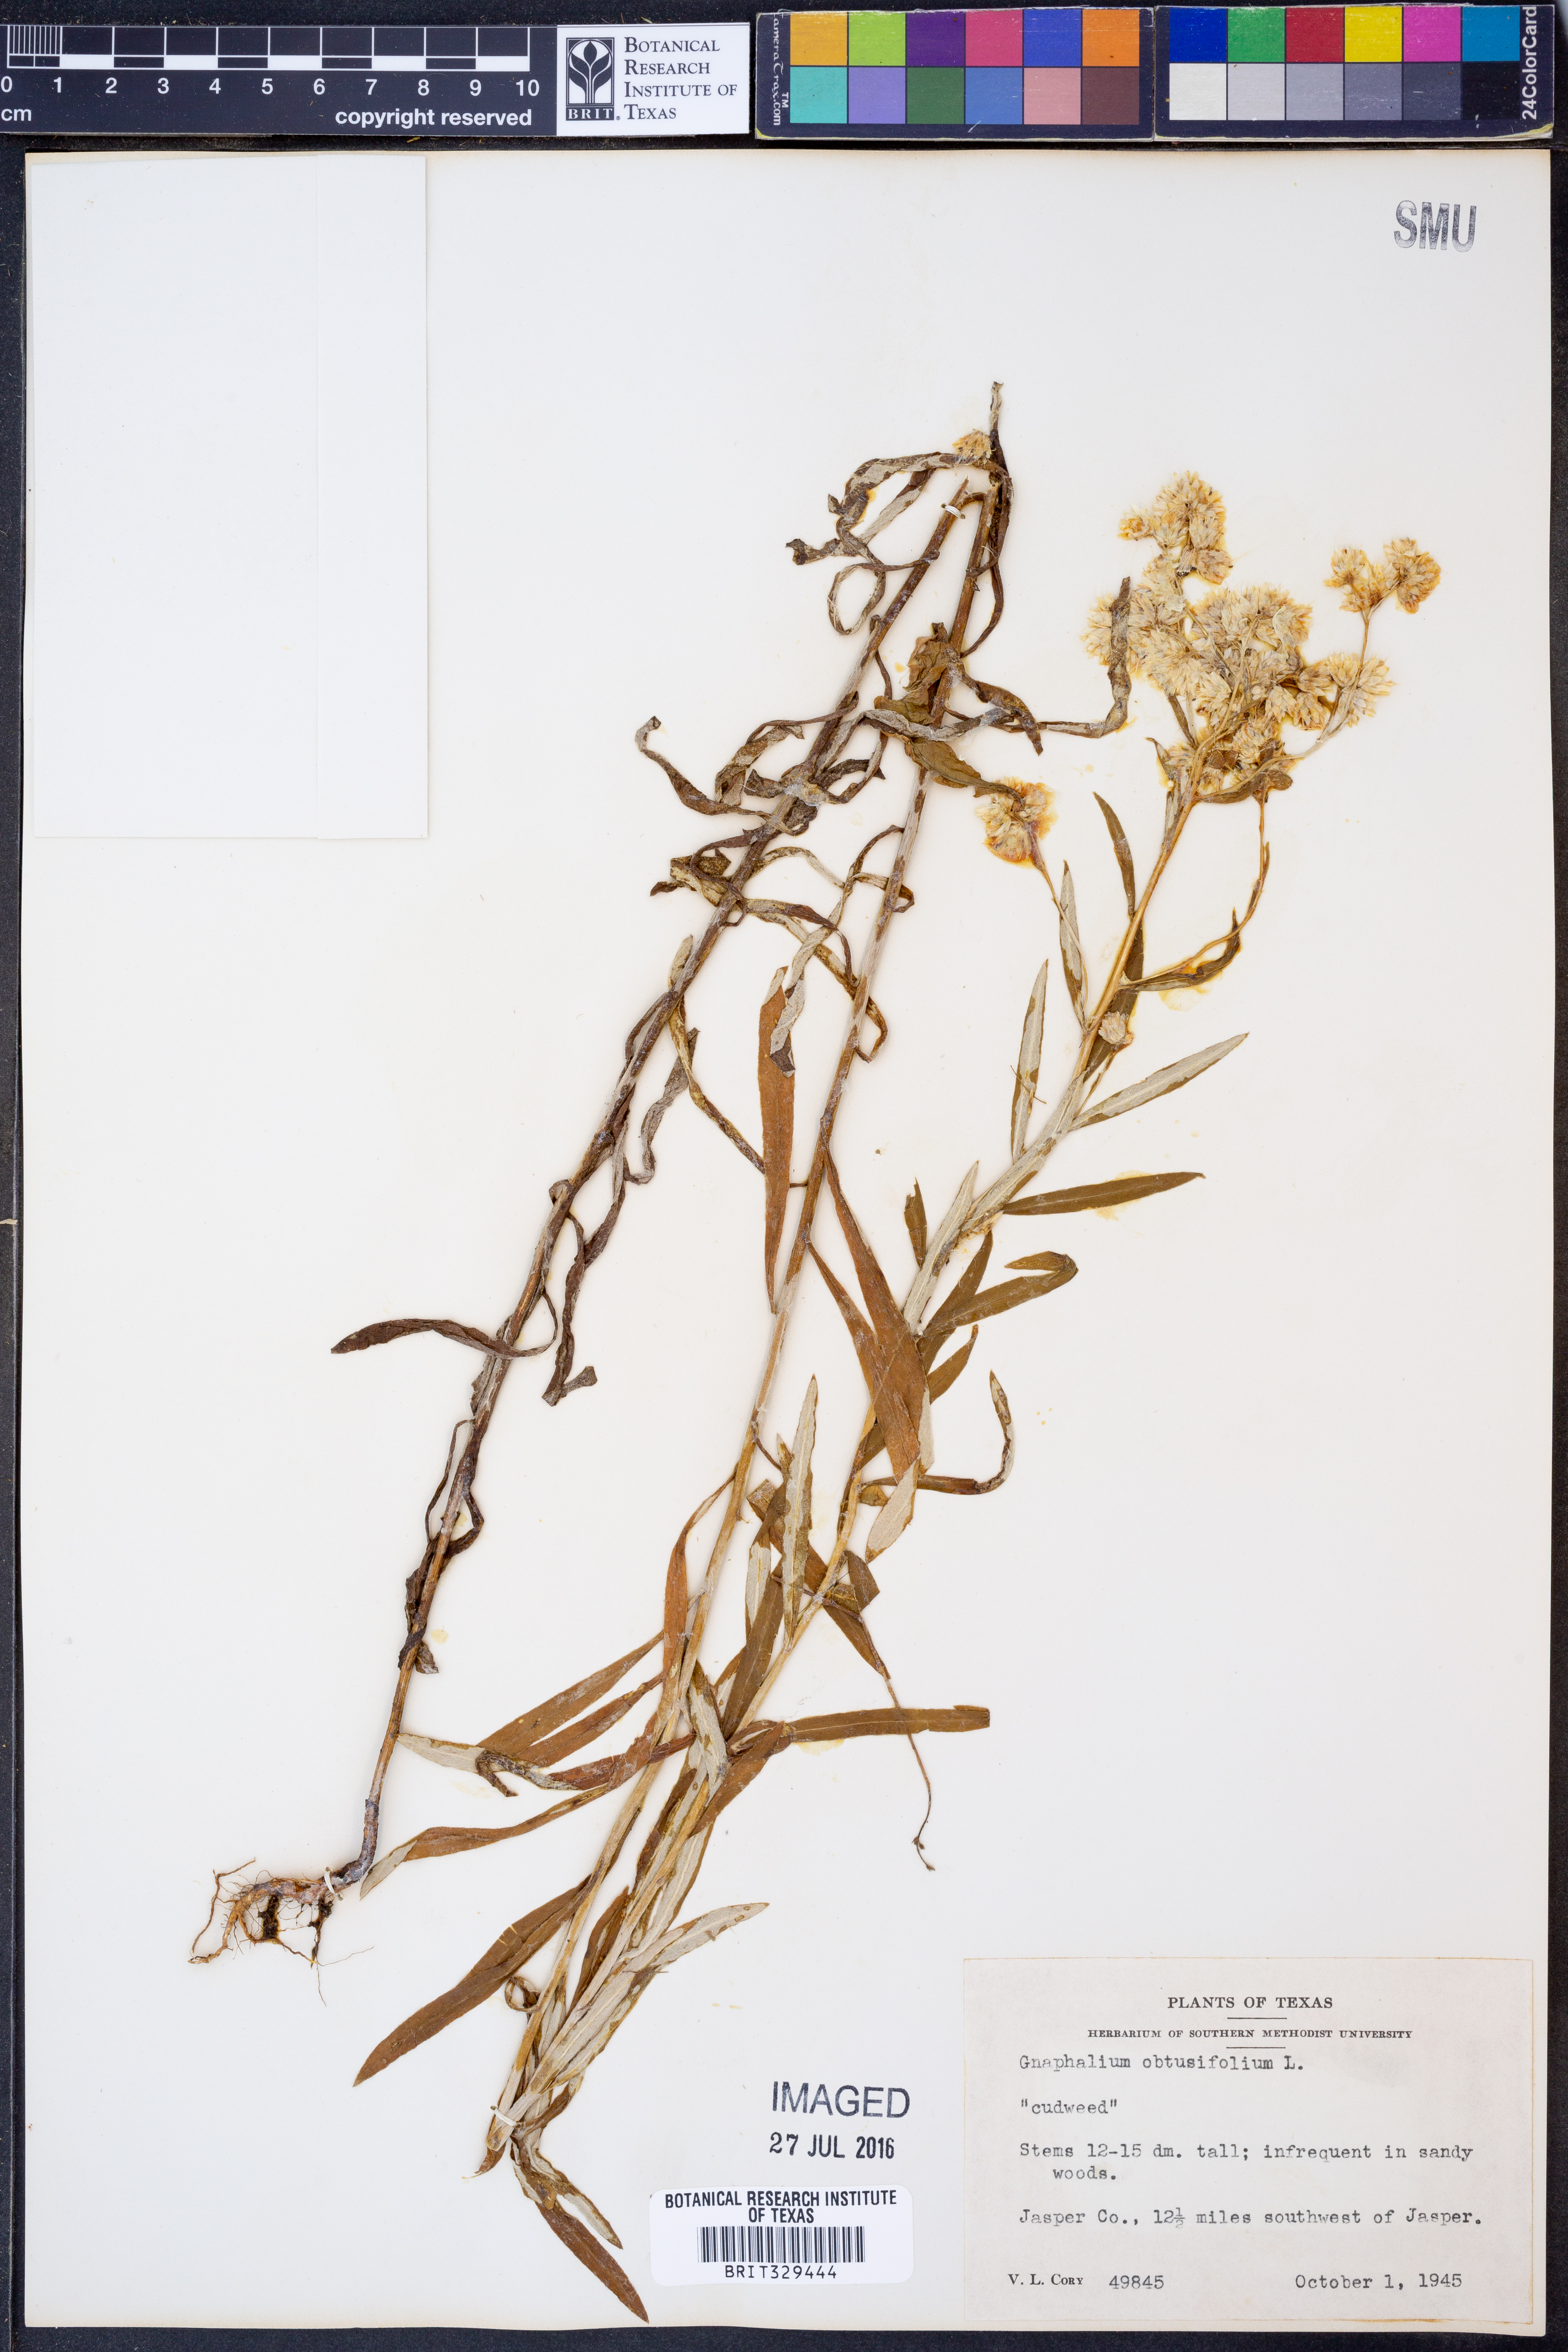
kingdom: Plantae
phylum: Tracheophyta
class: Magnoliopsida
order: Asterales
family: Asteraceae
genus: Pseudognaphalium
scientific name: Pseudognaphalium obtusifolium
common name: Eastern rabbit-tobacco
